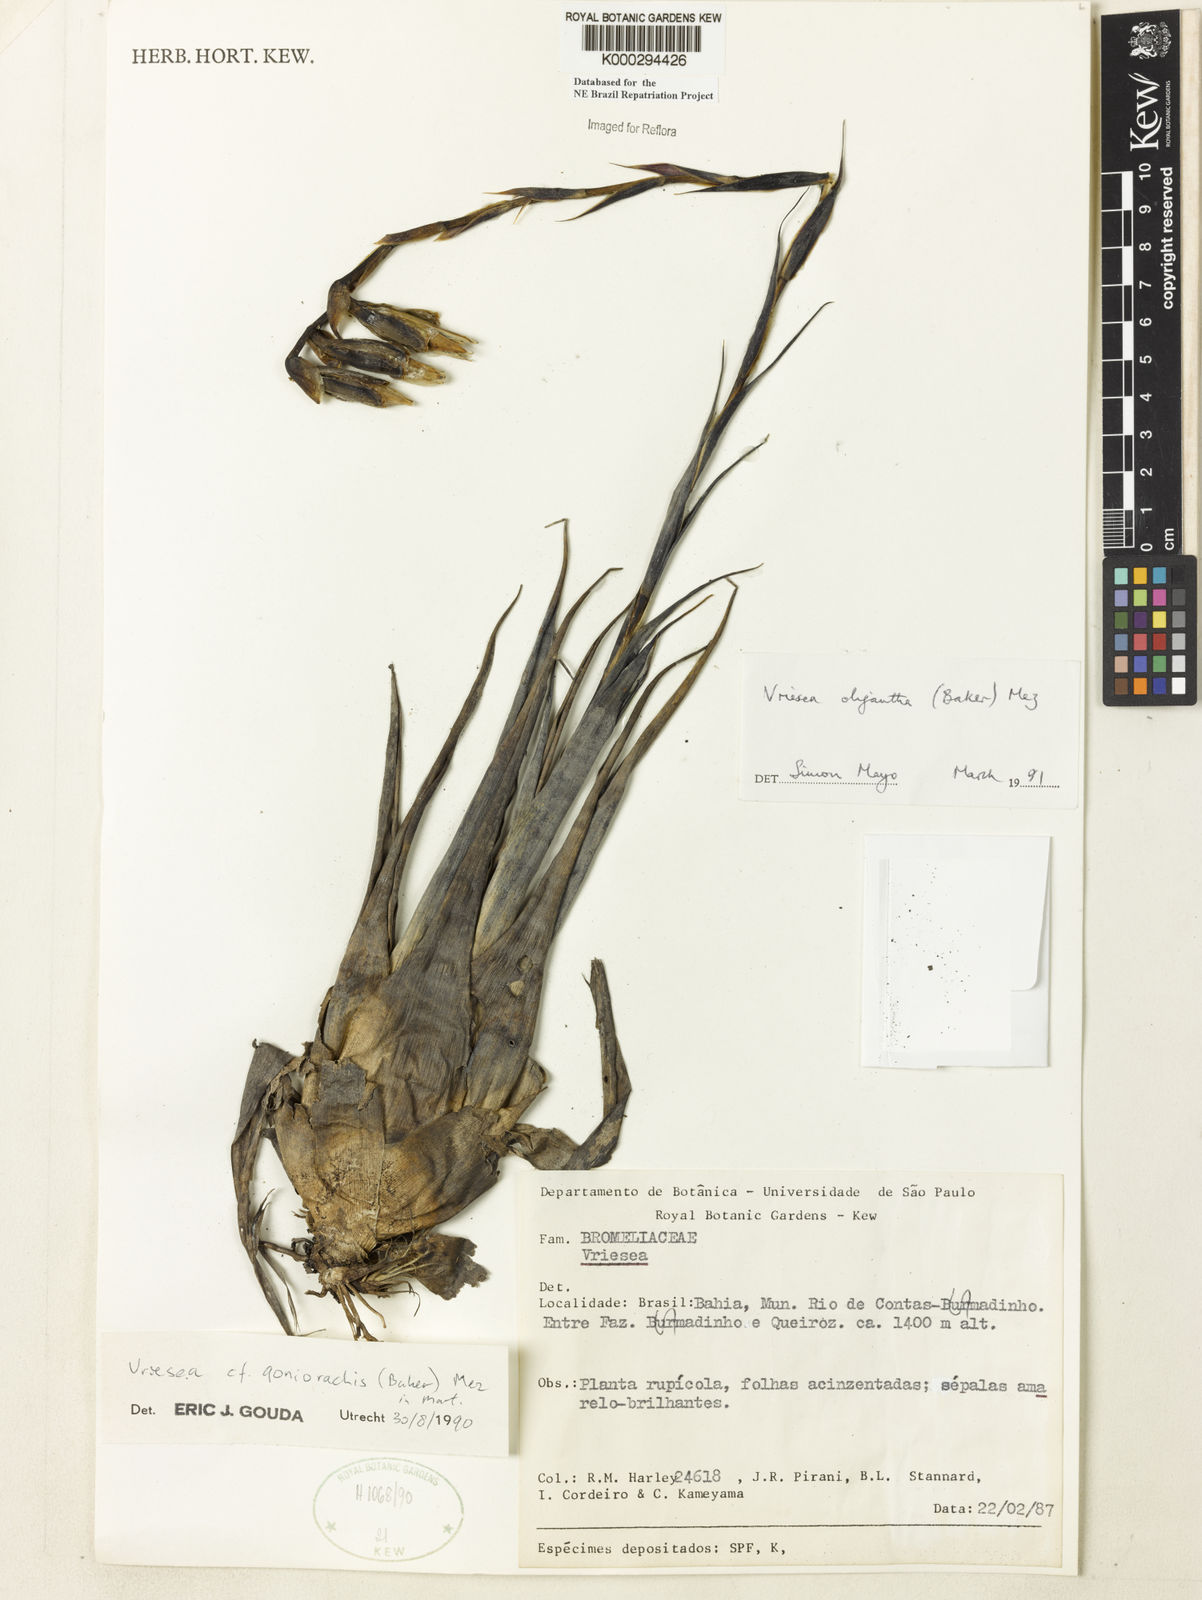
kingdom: Plantae
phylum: Tracheophyta
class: Liliopsida
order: Poales
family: Bromeliaceae
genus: Vriesea
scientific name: Vriesea oligantha
